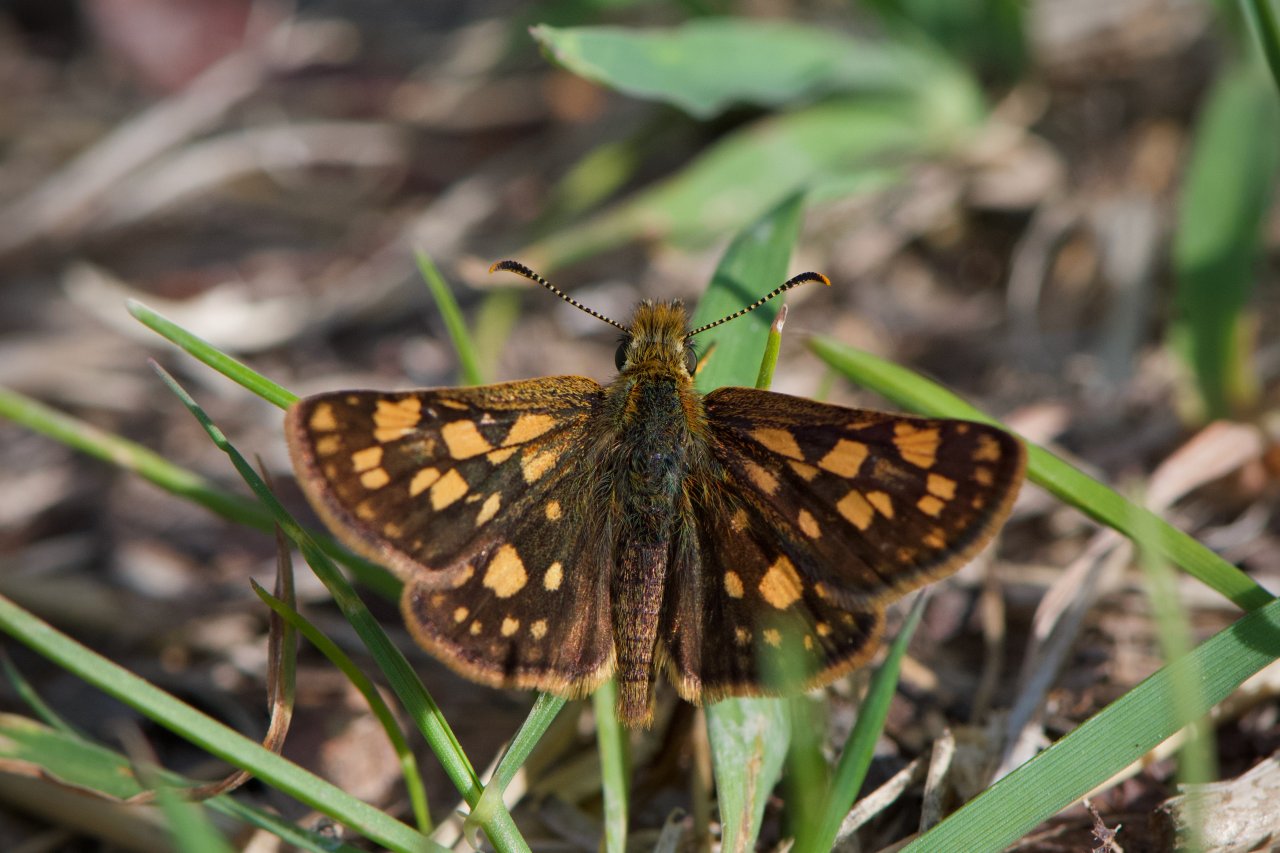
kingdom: Animalia
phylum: Arthropoda
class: Insecta
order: Lepidoptera
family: Hesperiidae
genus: Carterocephalus
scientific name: Carterocephalus palaemon
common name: Chequered Skipper
